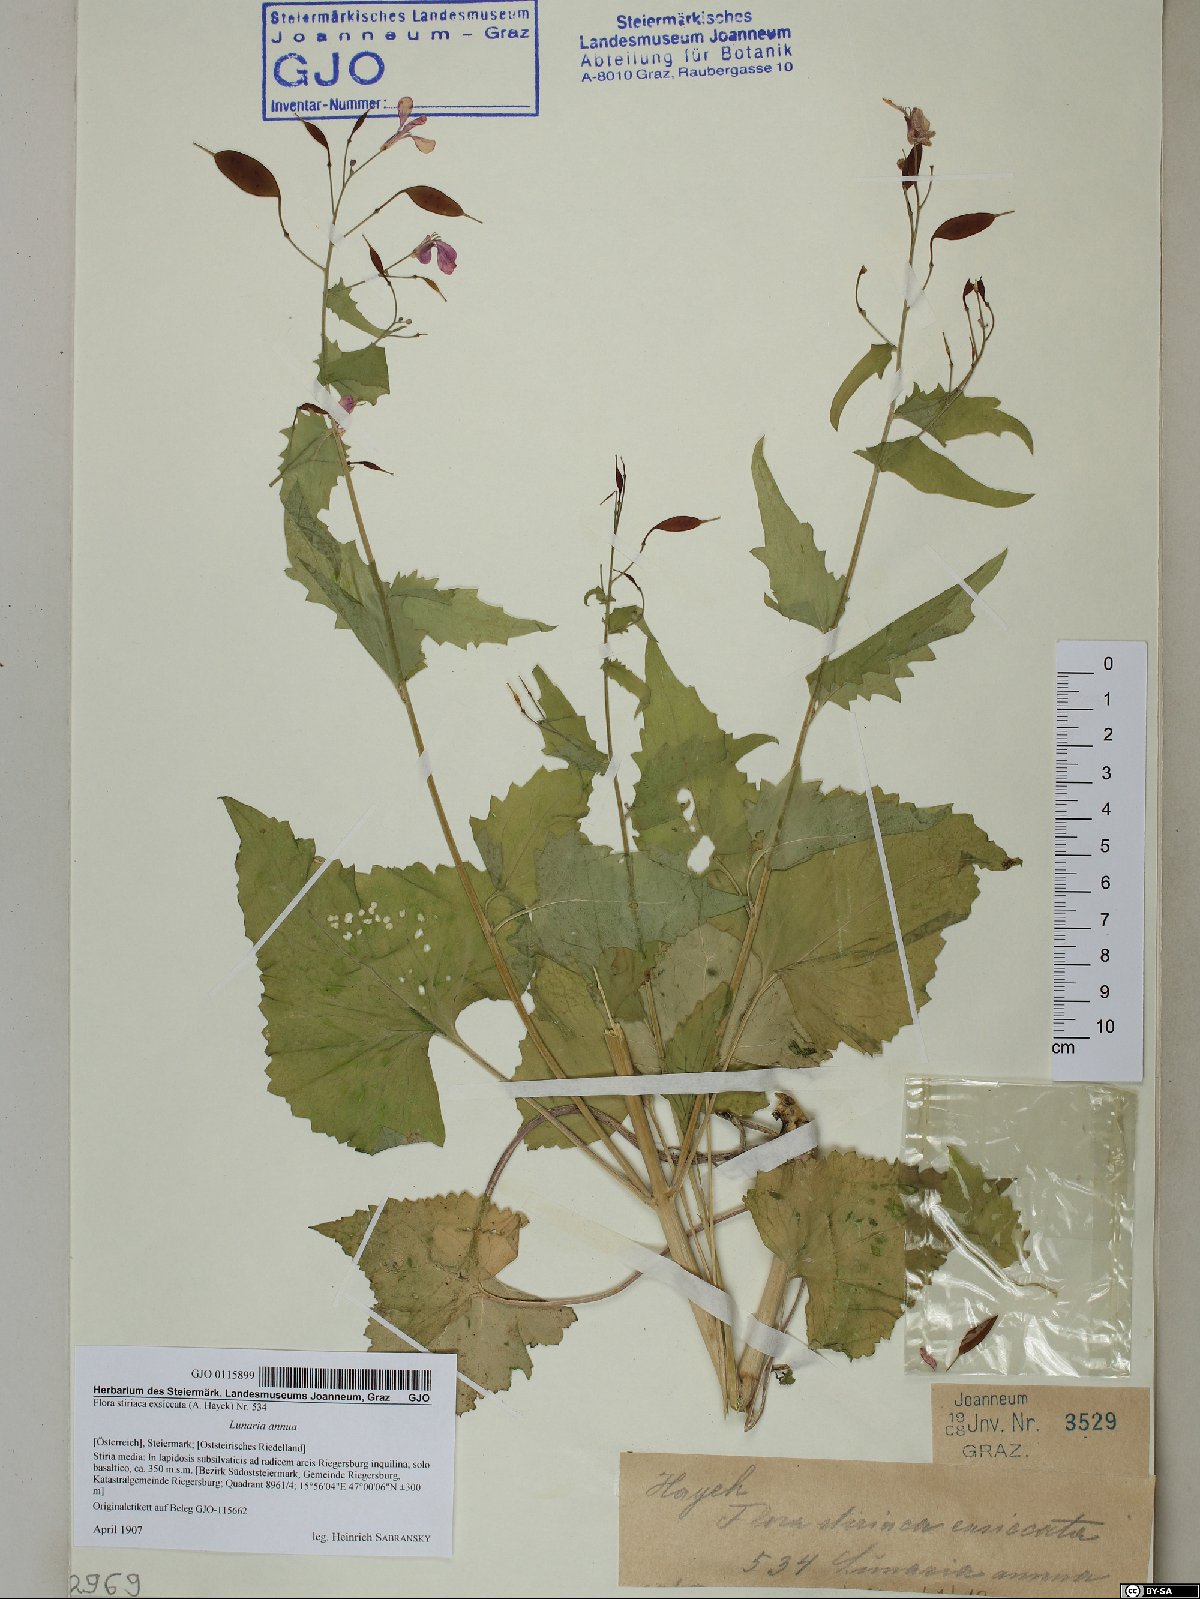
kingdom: Plantae
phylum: Tracheophyta
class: Magnoliopsida
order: Brassicales
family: Brassicaceae
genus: Lunaria
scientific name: Lunaria annua
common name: Honesty
